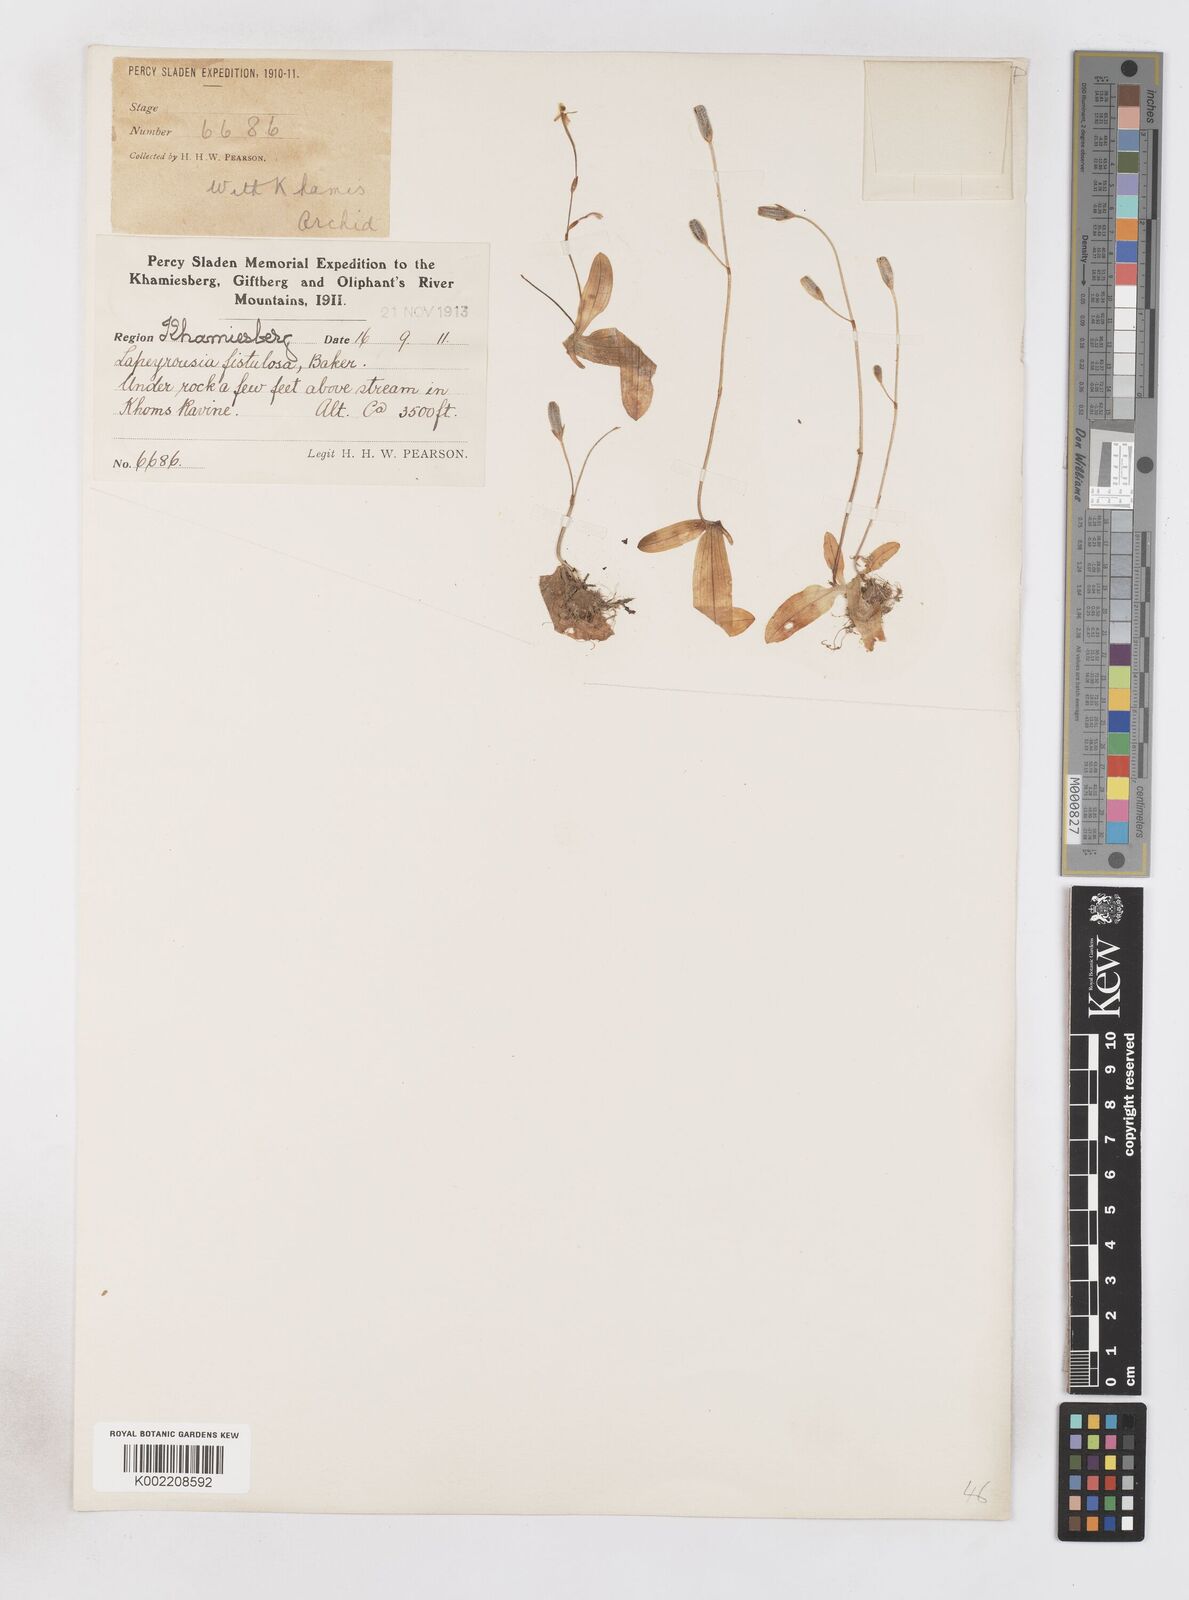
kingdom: Plantae
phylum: Tracheophyta
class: Liliopsida
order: Asparagales
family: Iridaceae
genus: Xenoscapa
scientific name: Xenoscapa fistulosa
